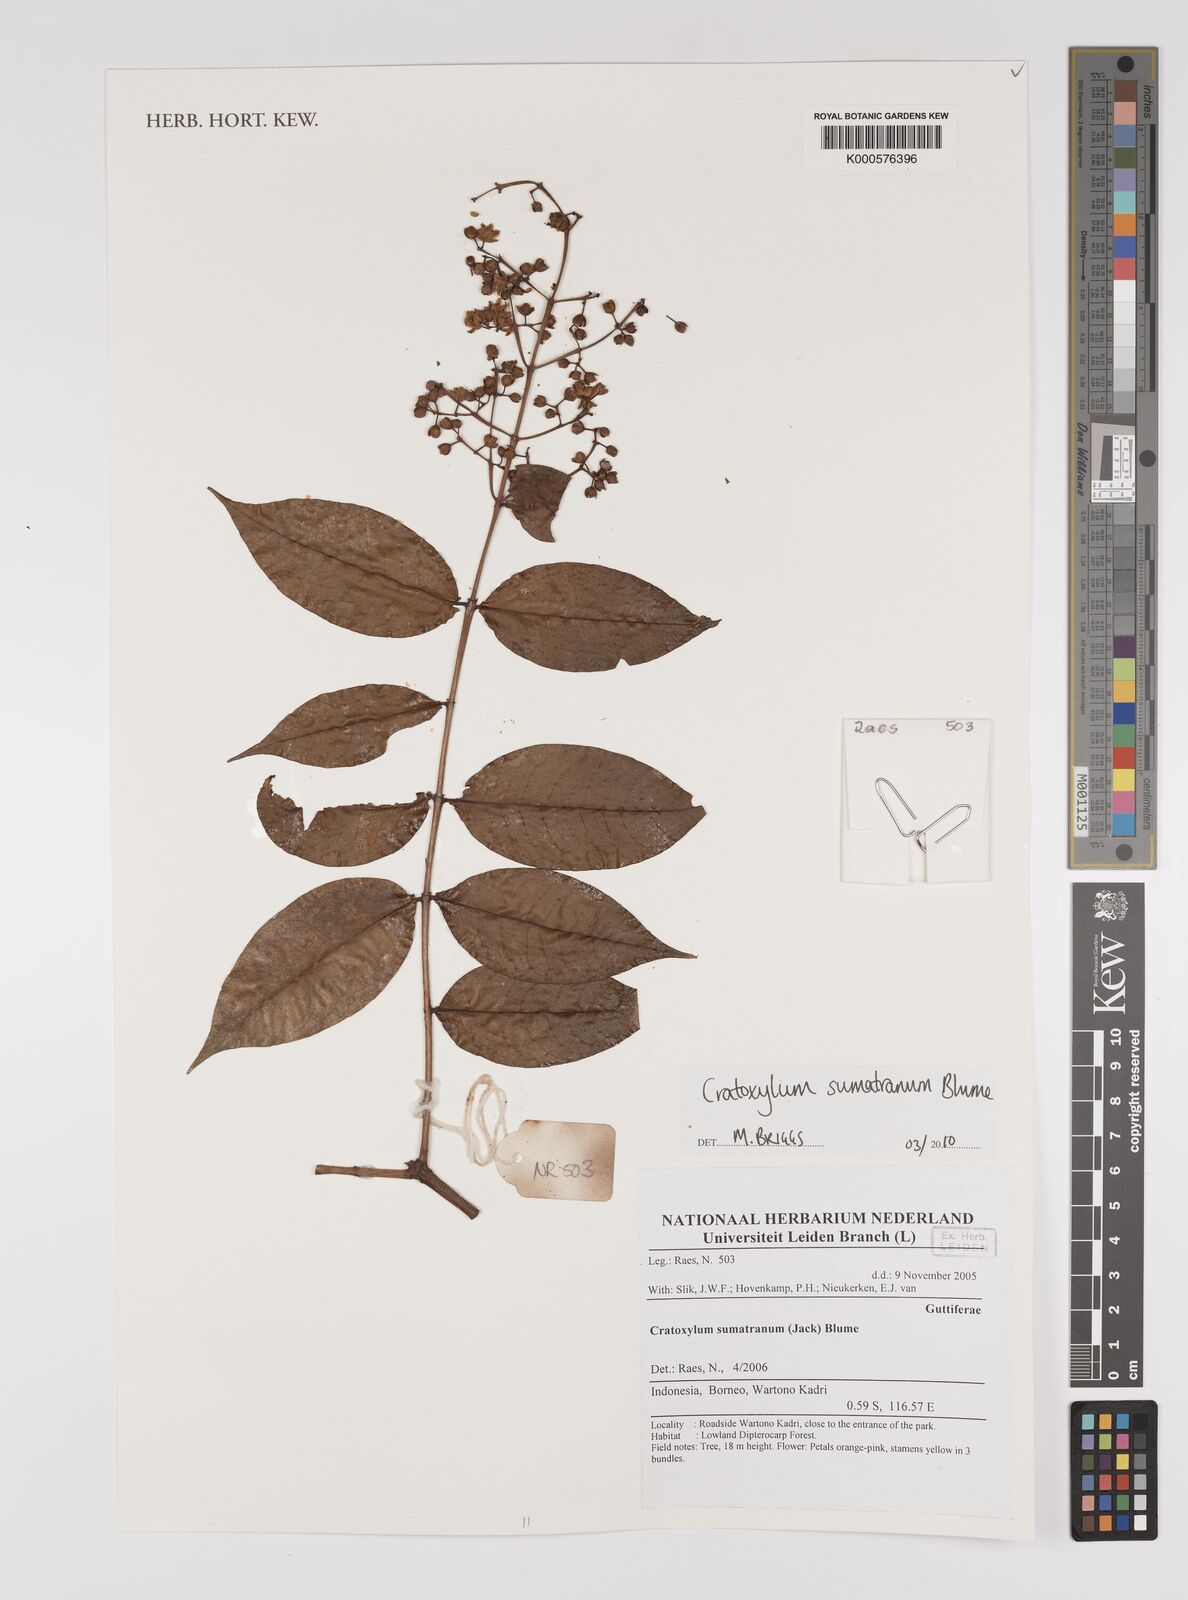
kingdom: Plantae
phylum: Tracheophyta
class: Magnoliopsida
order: Malpighiales
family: Hypericaceae
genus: Cratoxylum
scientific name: Cratoxylum sumatranum
